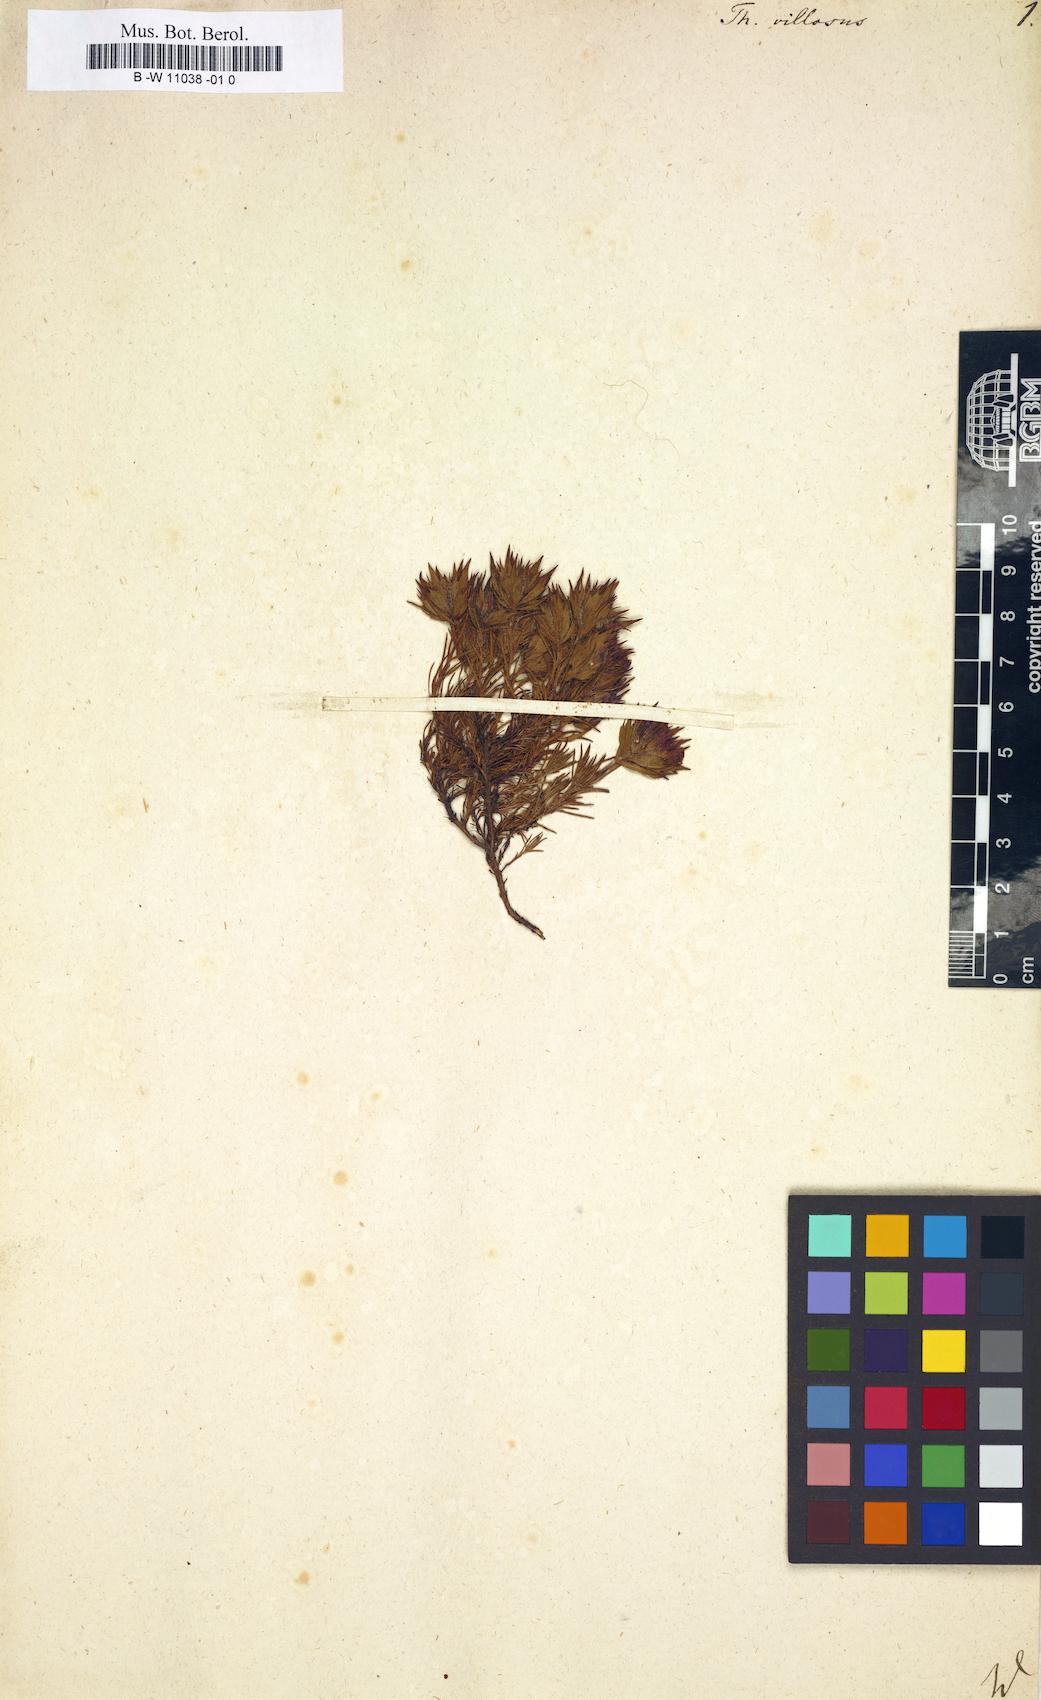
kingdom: Plantae
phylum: Tracheophyta
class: Magnoliopsida
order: Lamiales
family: Lamiaceae
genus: Thymus
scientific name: Thymus villosus
